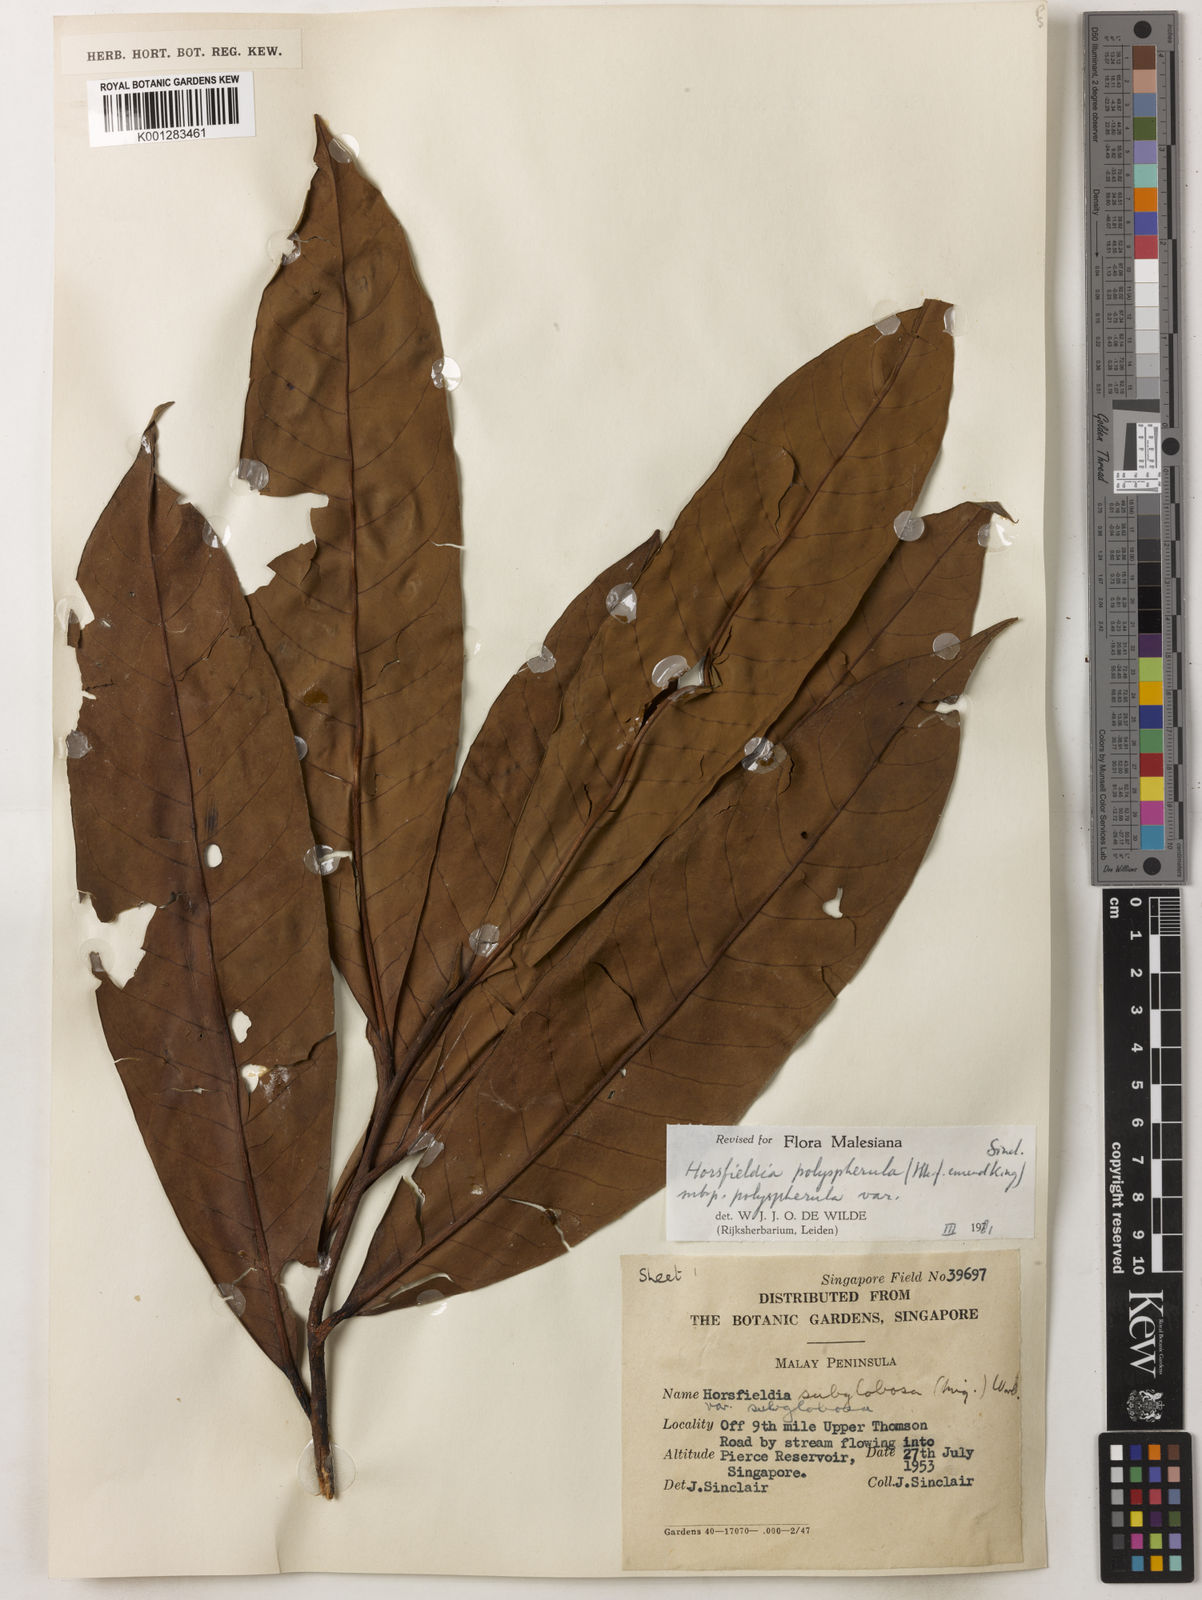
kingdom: Plantae
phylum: Tracheophyta
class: Magnoliopsida
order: Magnoliales
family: Myristicaceae
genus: Horsfieldia
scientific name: Horsfieldia polyspherula
